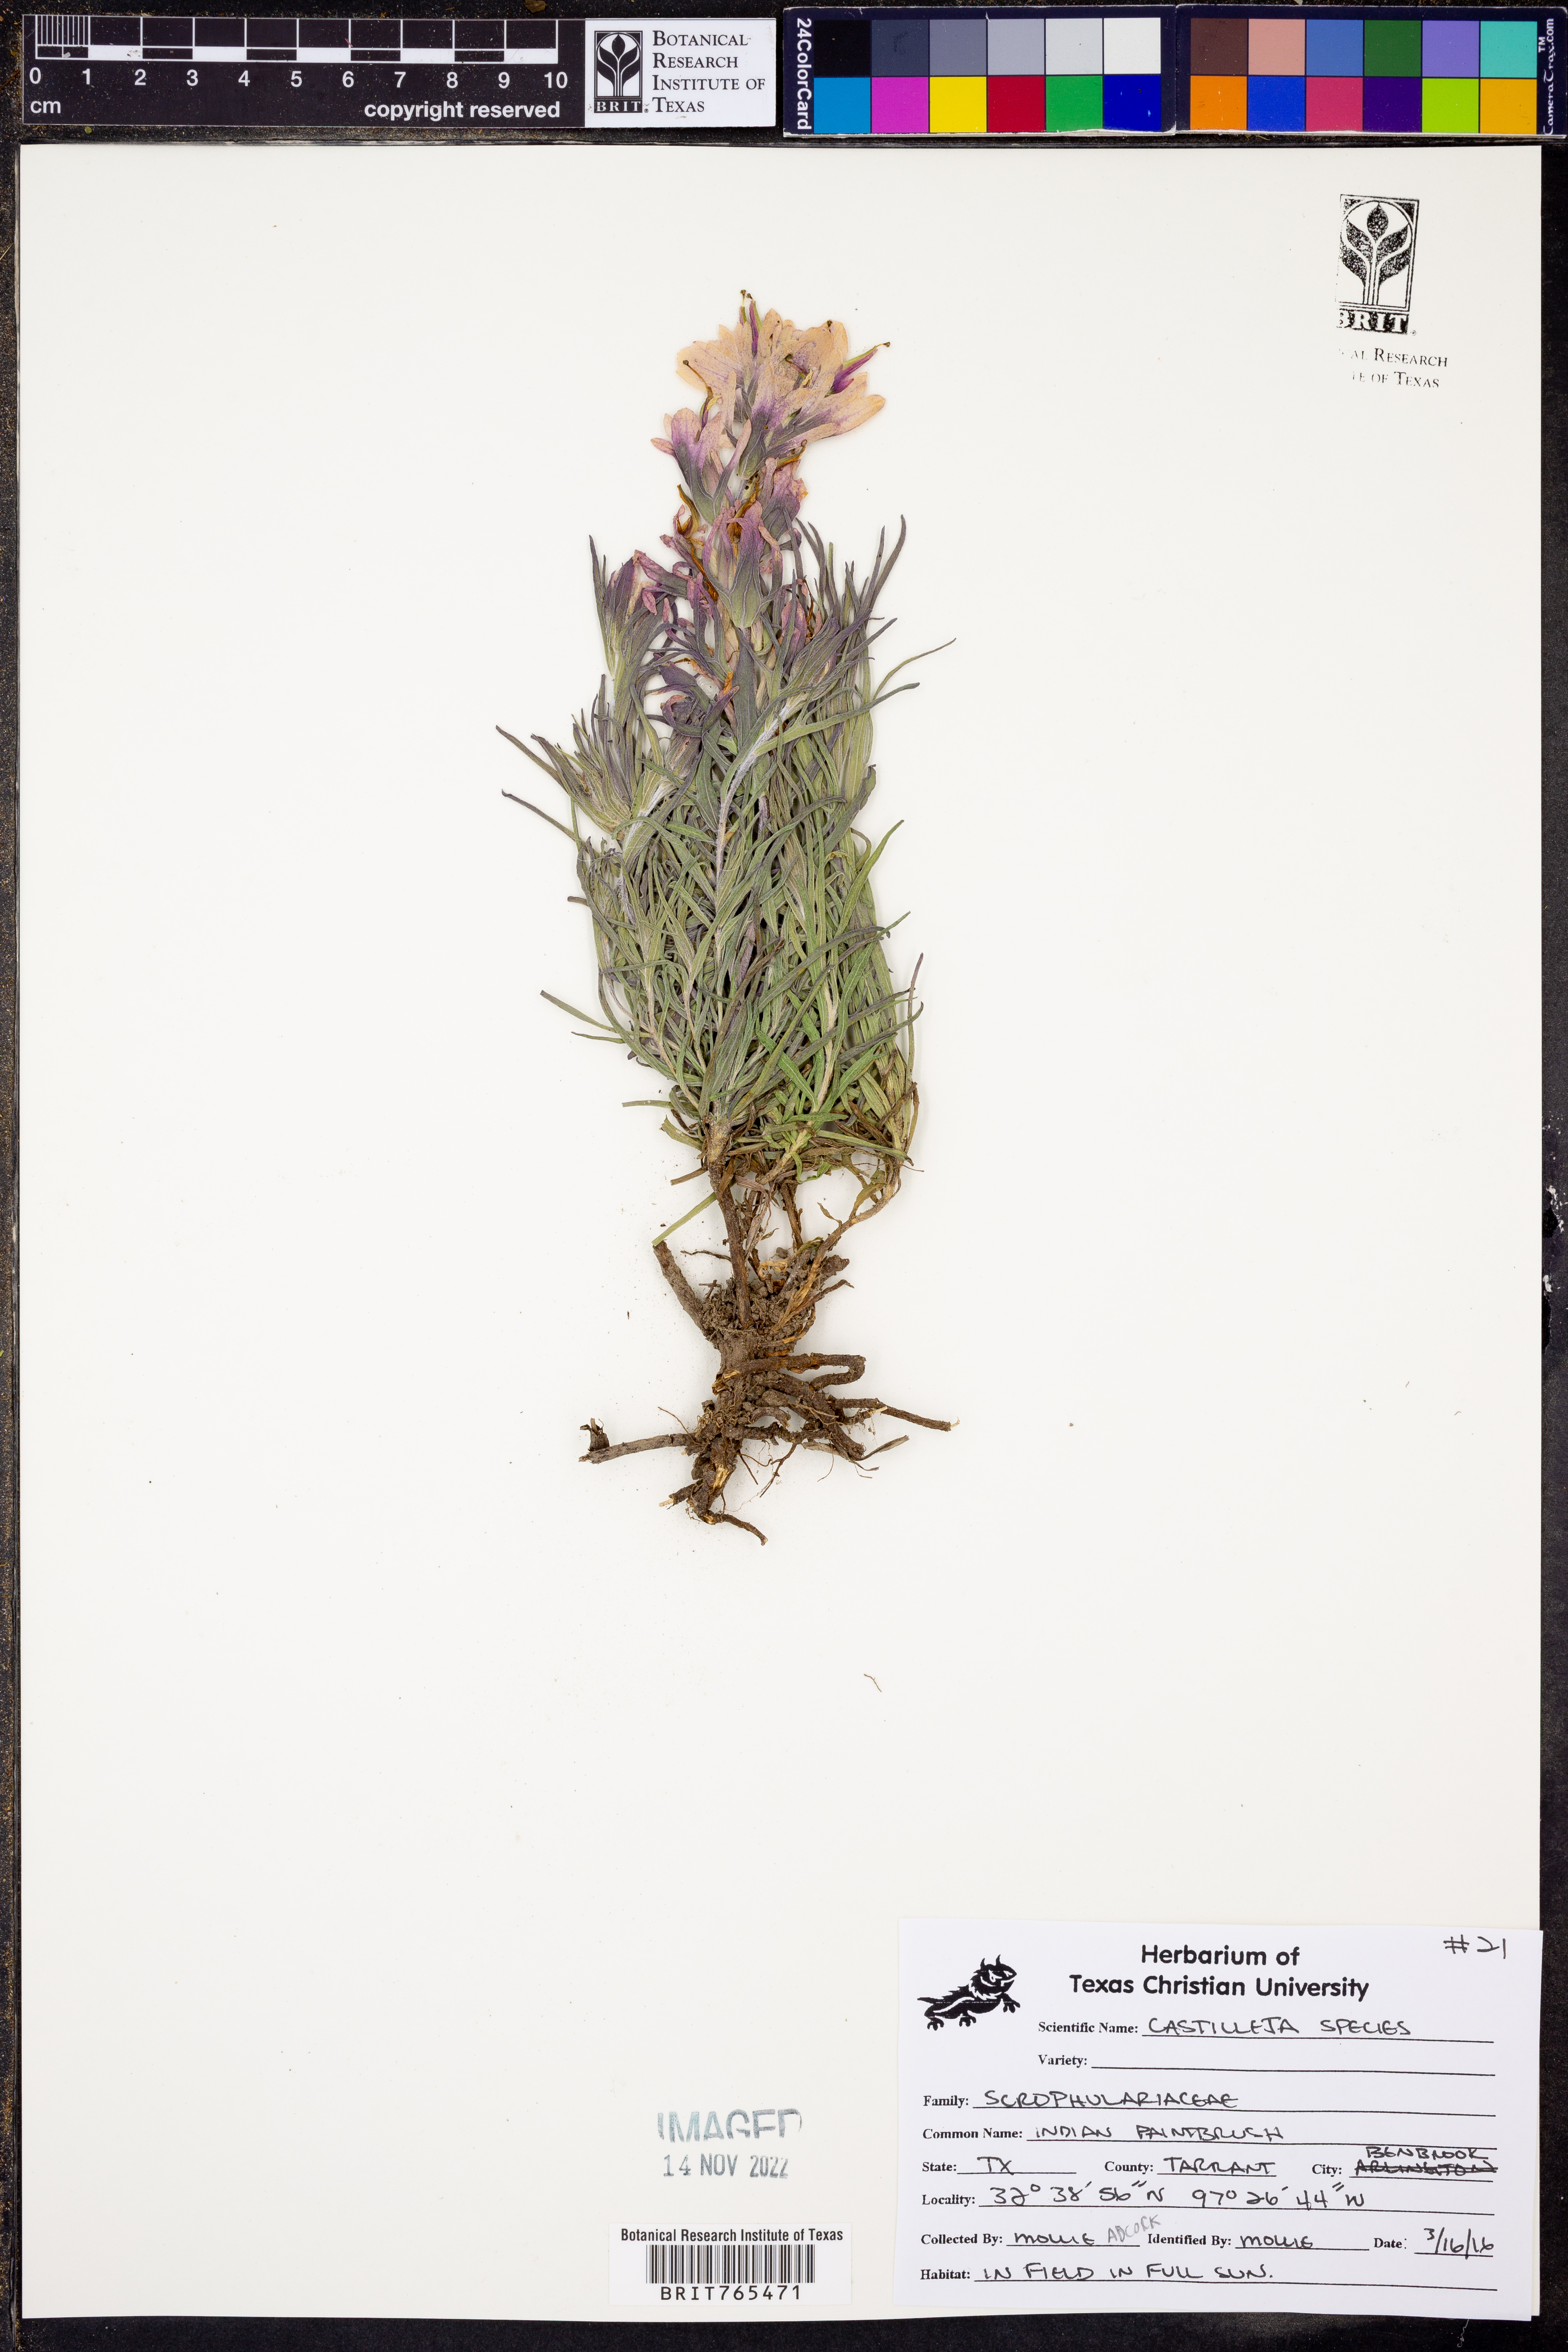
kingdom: Plantae
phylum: Tracheophyta
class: Magnoliopsida
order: Lamiales
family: Orobanchaceae
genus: Castilleja
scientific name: Castilleja
